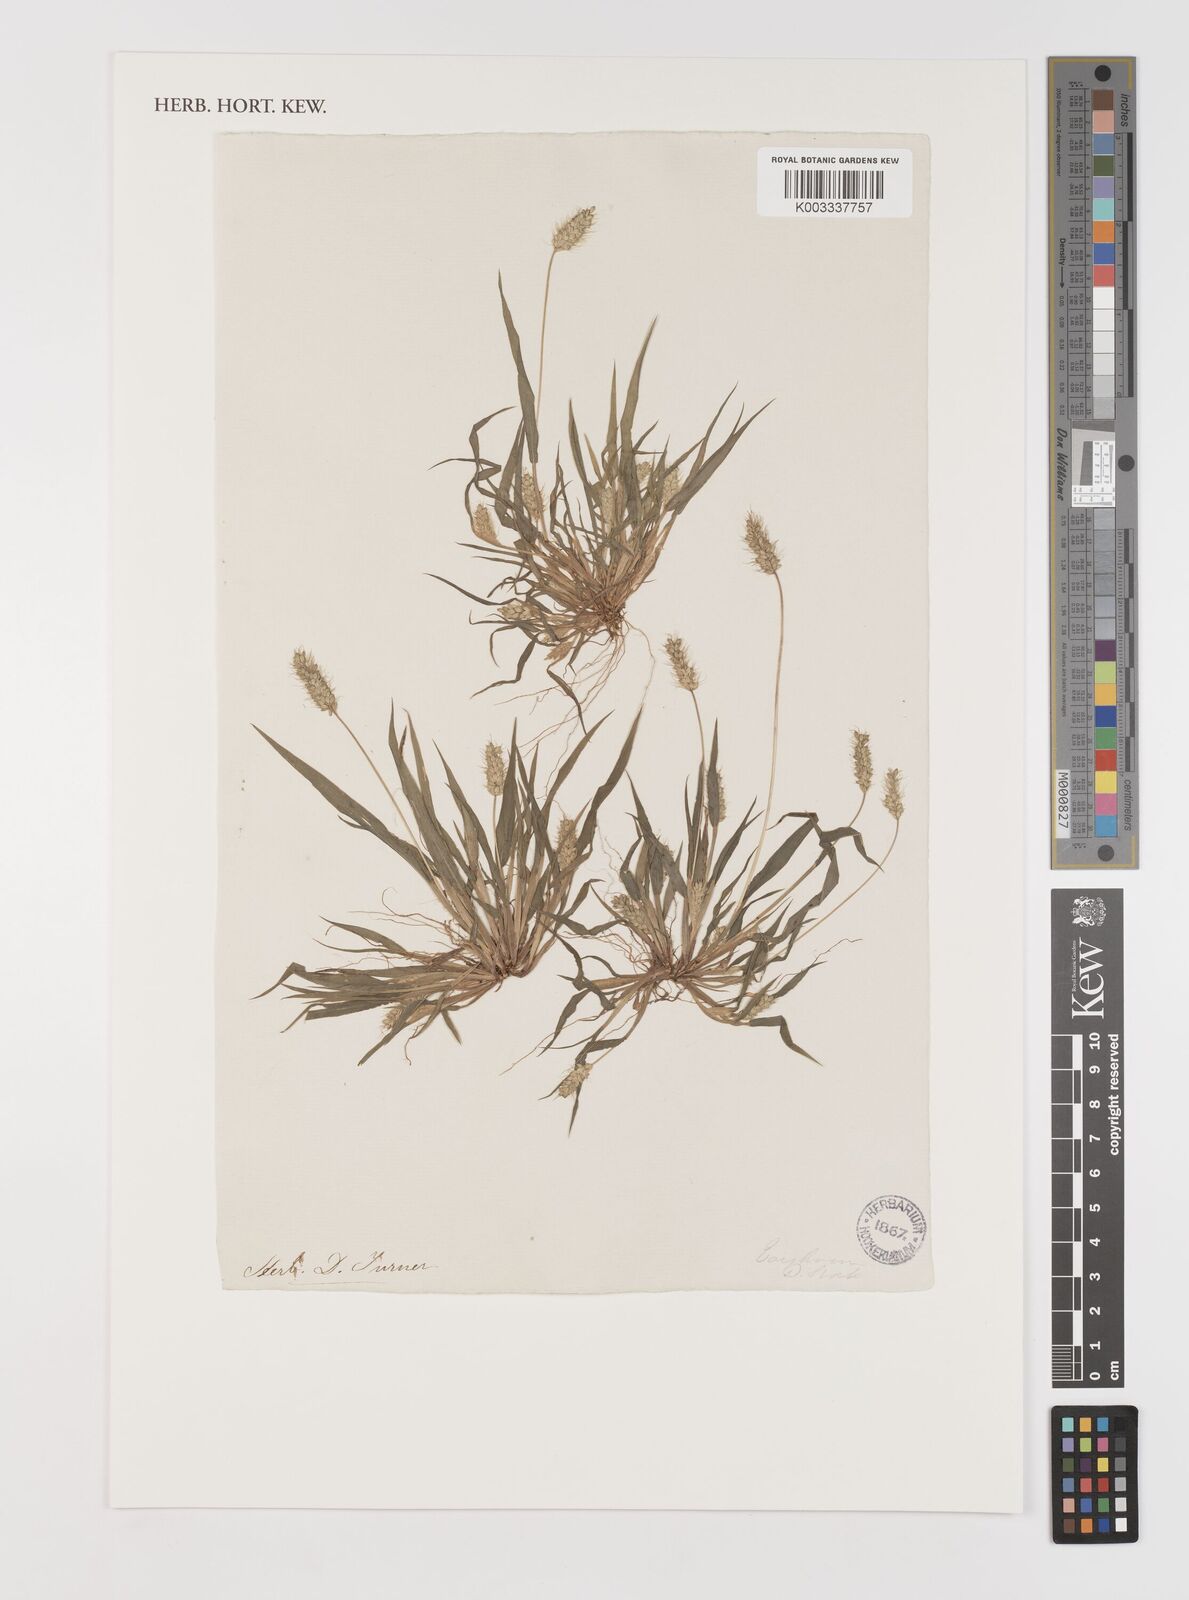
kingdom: Plantae
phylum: Tracheophyta
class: Liliopsida
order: Poales
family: Poaceae
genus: Setaria
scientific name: Setaria viridis
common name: Green bristlegrass
